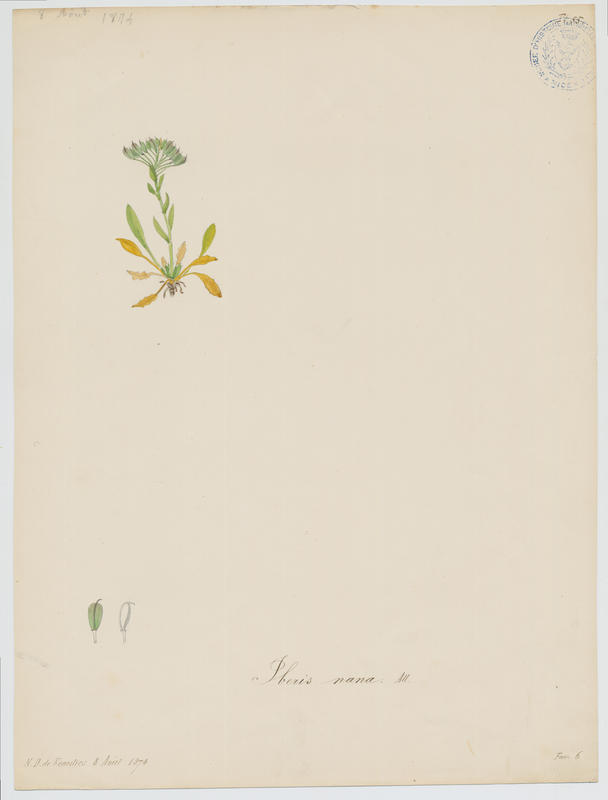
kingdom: Plantae
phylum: Tracheophyta
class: Magnoliopsida
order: Brassicales
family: Brassicaceae
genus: Iberis
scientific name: Iberis aurosica
